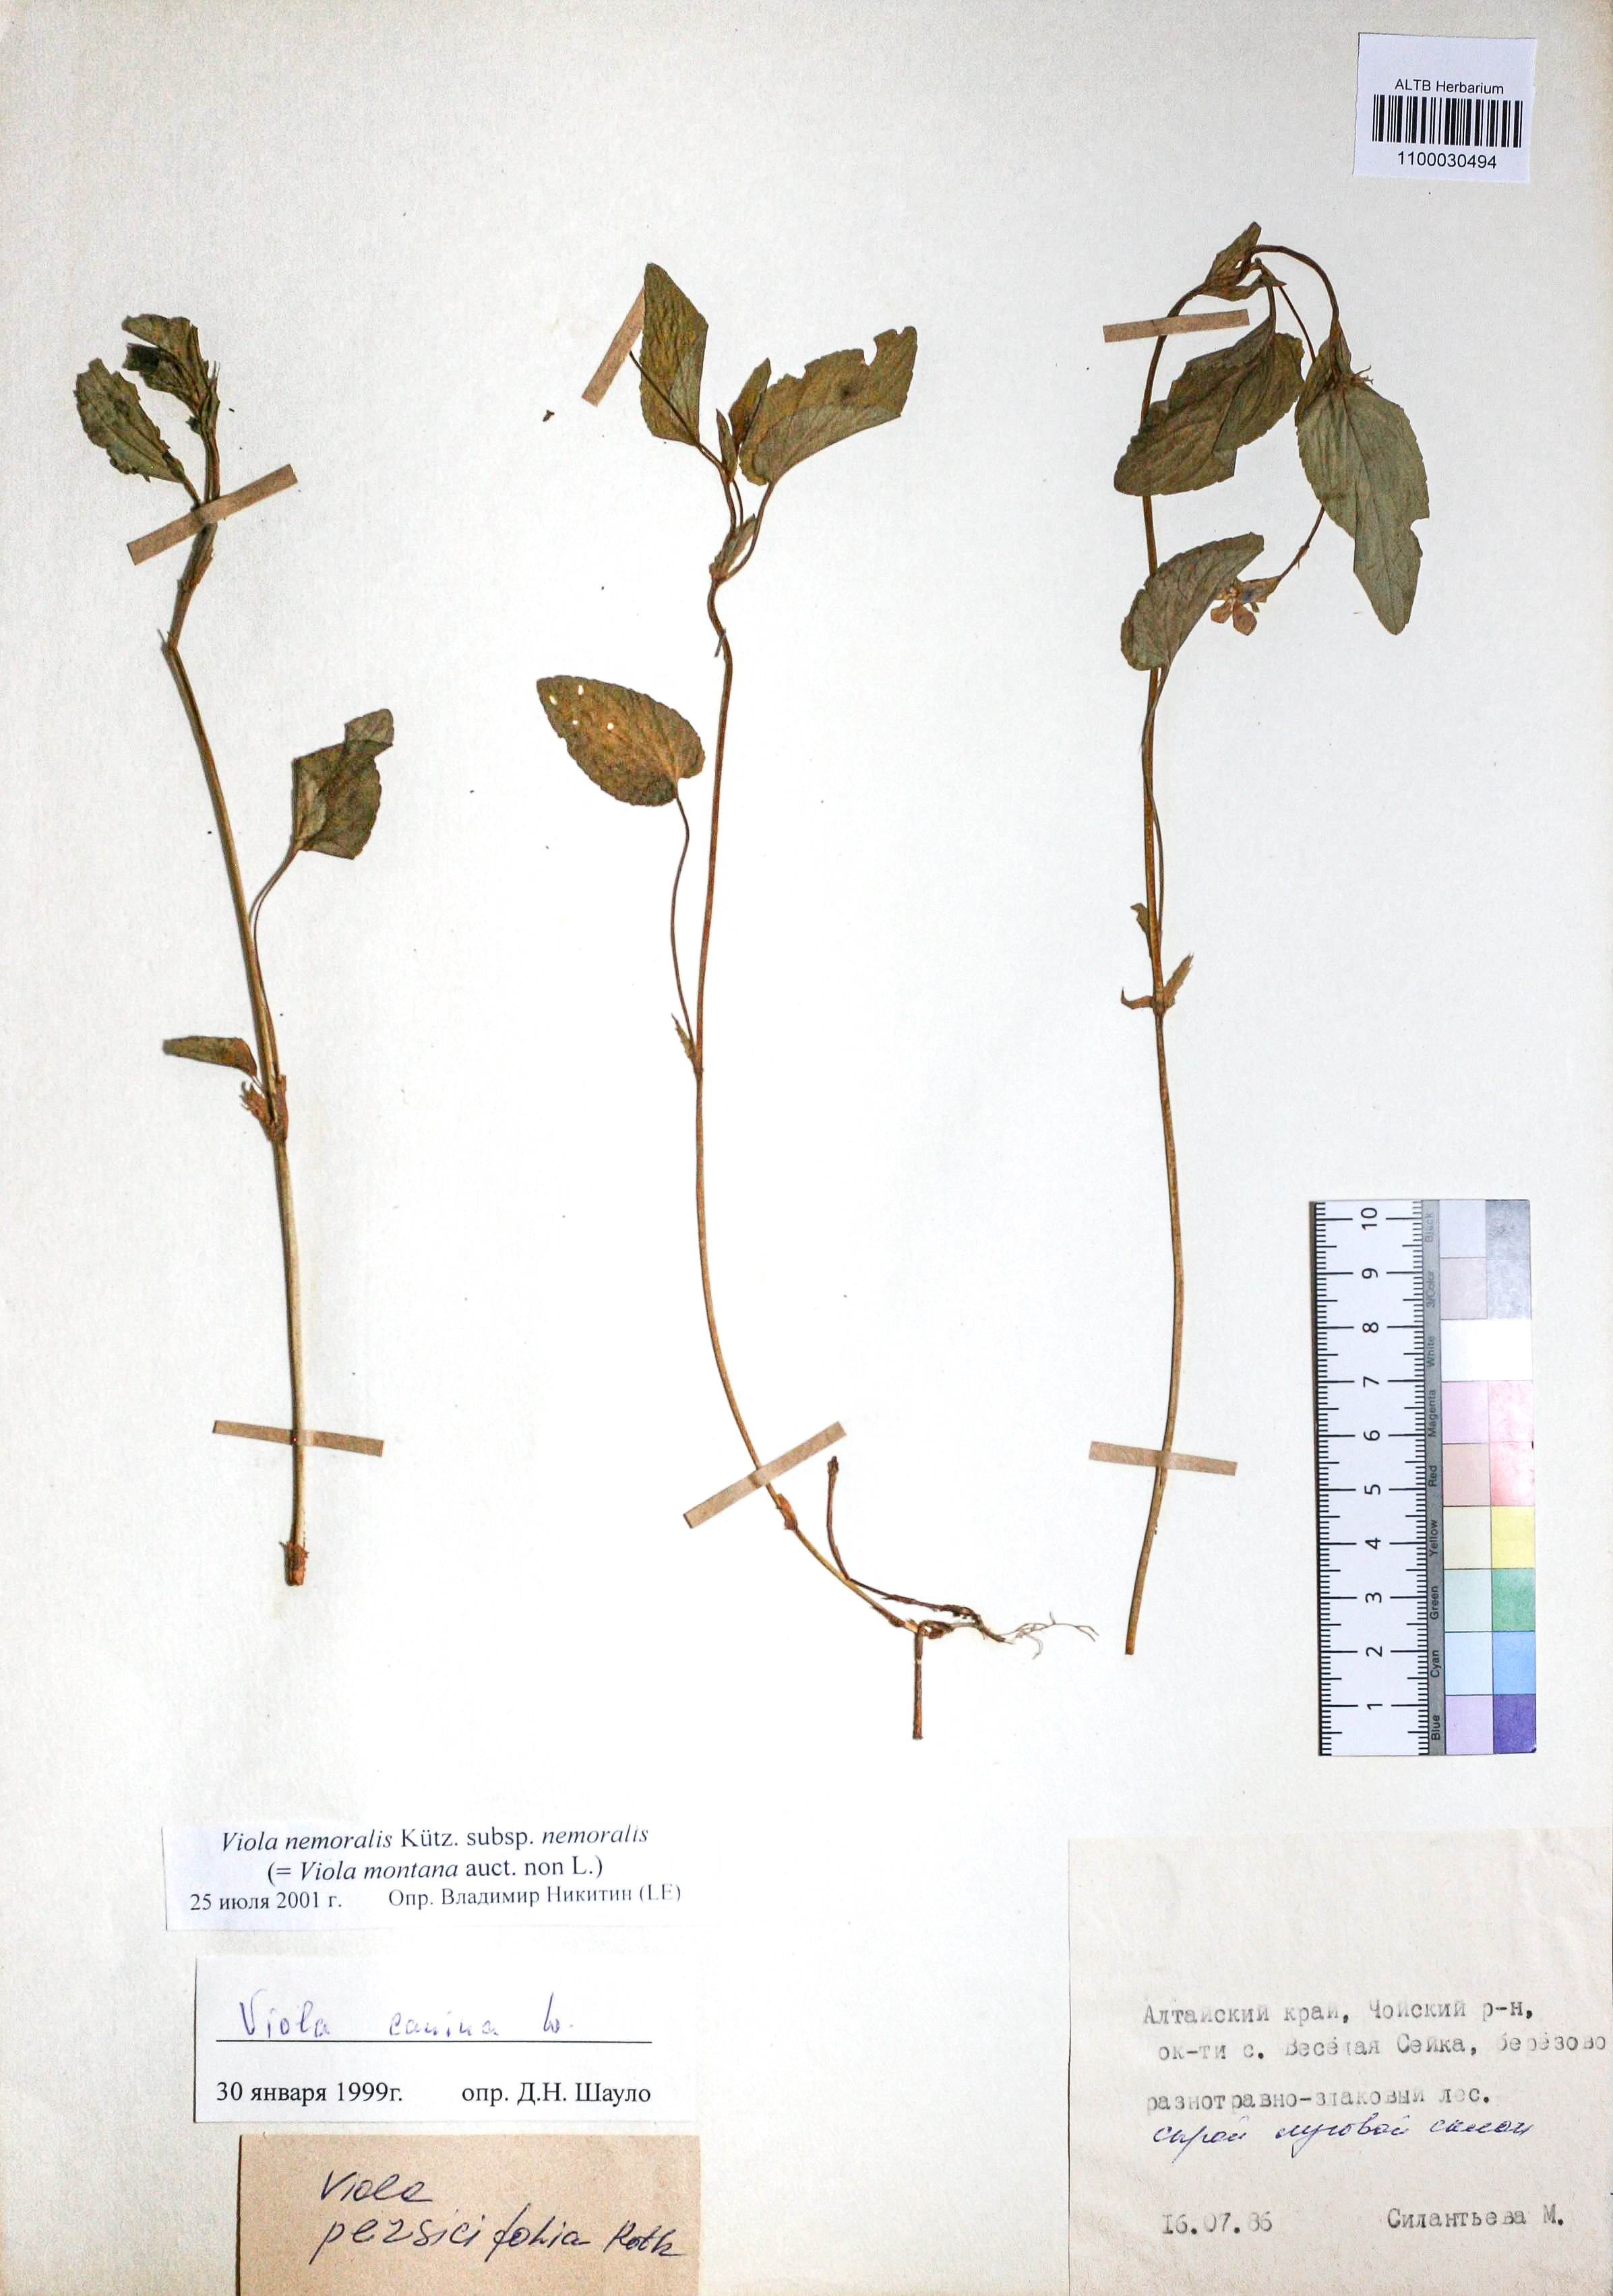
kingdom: Plantae
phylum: Tracheophyta
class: Magnoliopsida
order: Malpighiales
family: Violaceae
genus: Viola
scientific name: Viola ruppii
